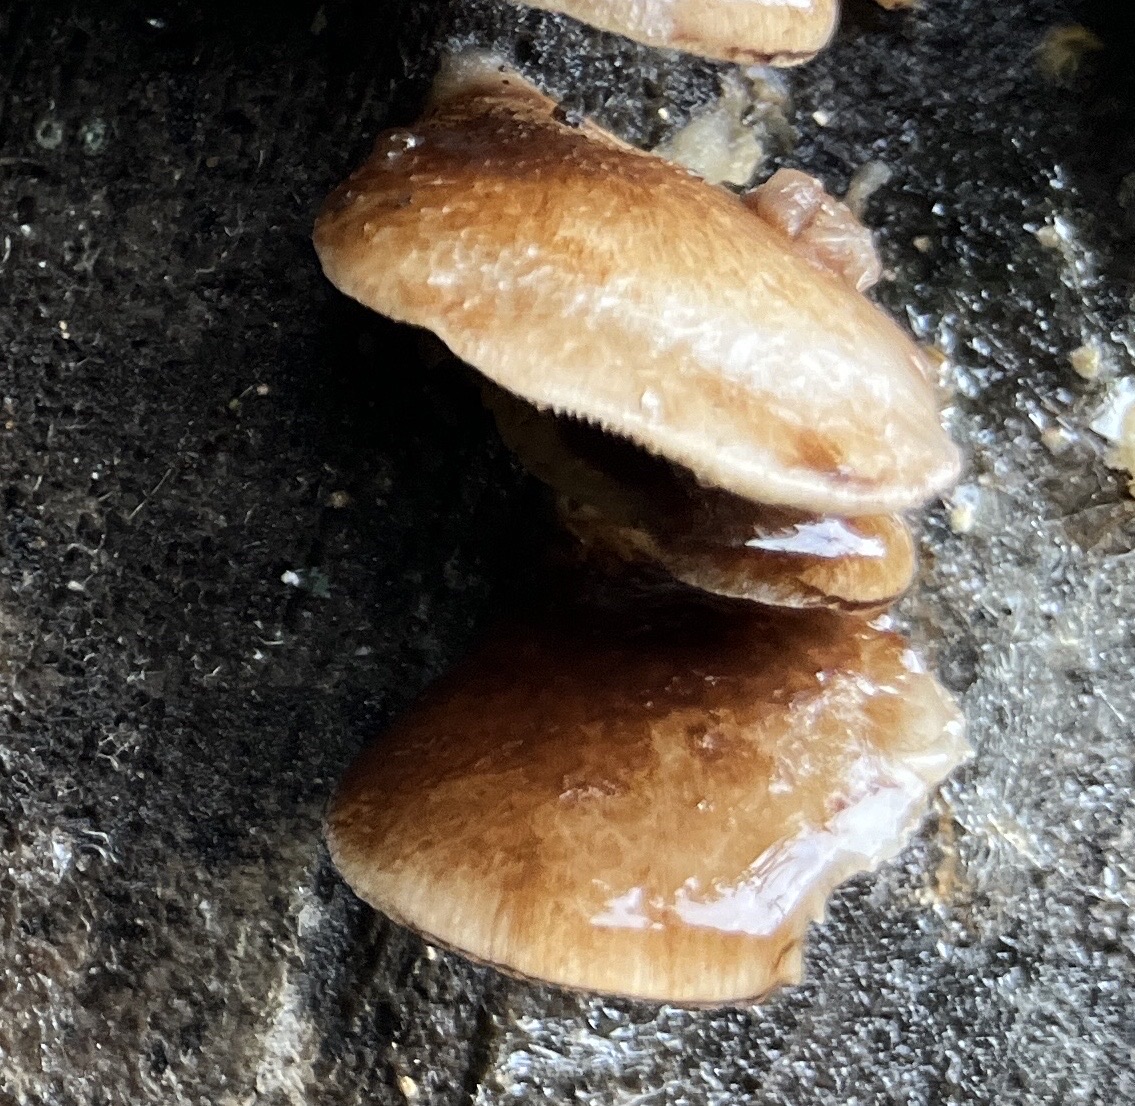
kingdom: Fungi
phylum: Basidiomycota
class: Agaricomycetes
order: Agaricales
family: Crepidotaceae
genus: Crepidotus
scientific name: Crepidotus mollis
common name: blød muslingesvamp
